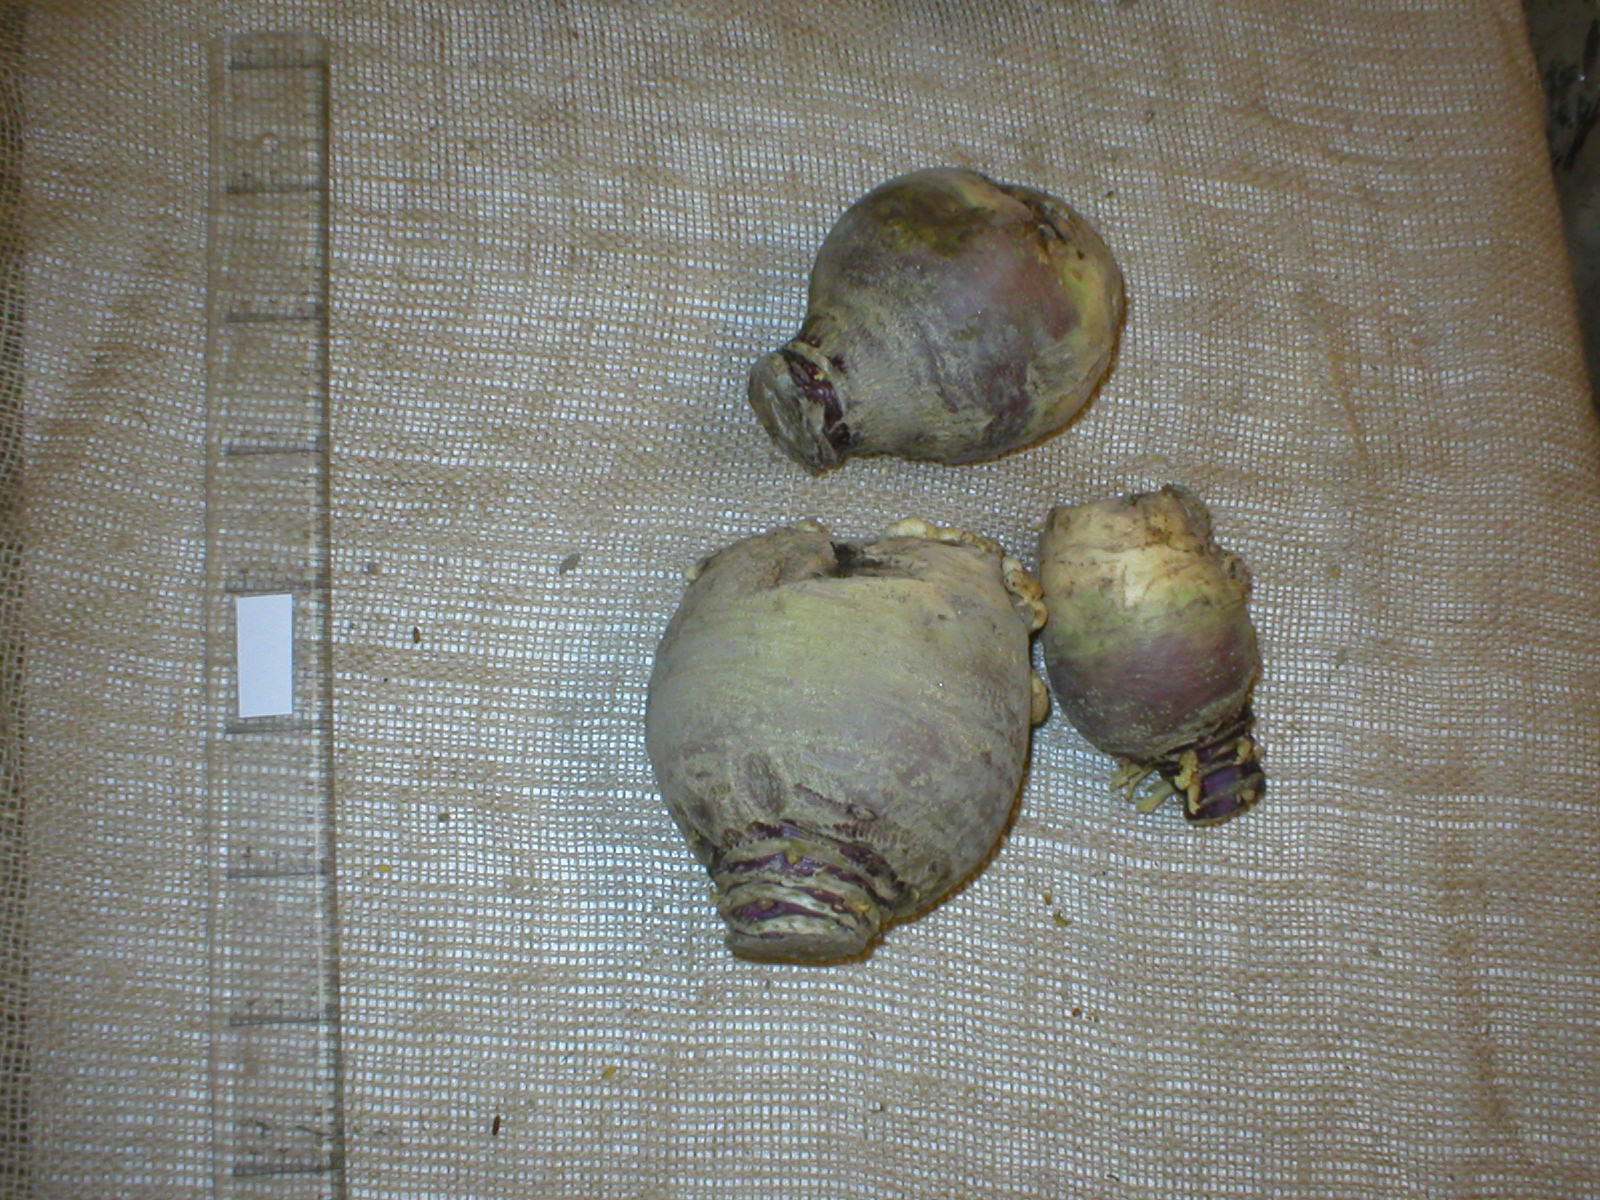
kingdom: Plantae
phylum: Tracheophyta
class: Magnoliopsida
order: Brassicales
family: Brassicaceae
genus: Brassica
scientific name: Brassica napus
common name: Rape
